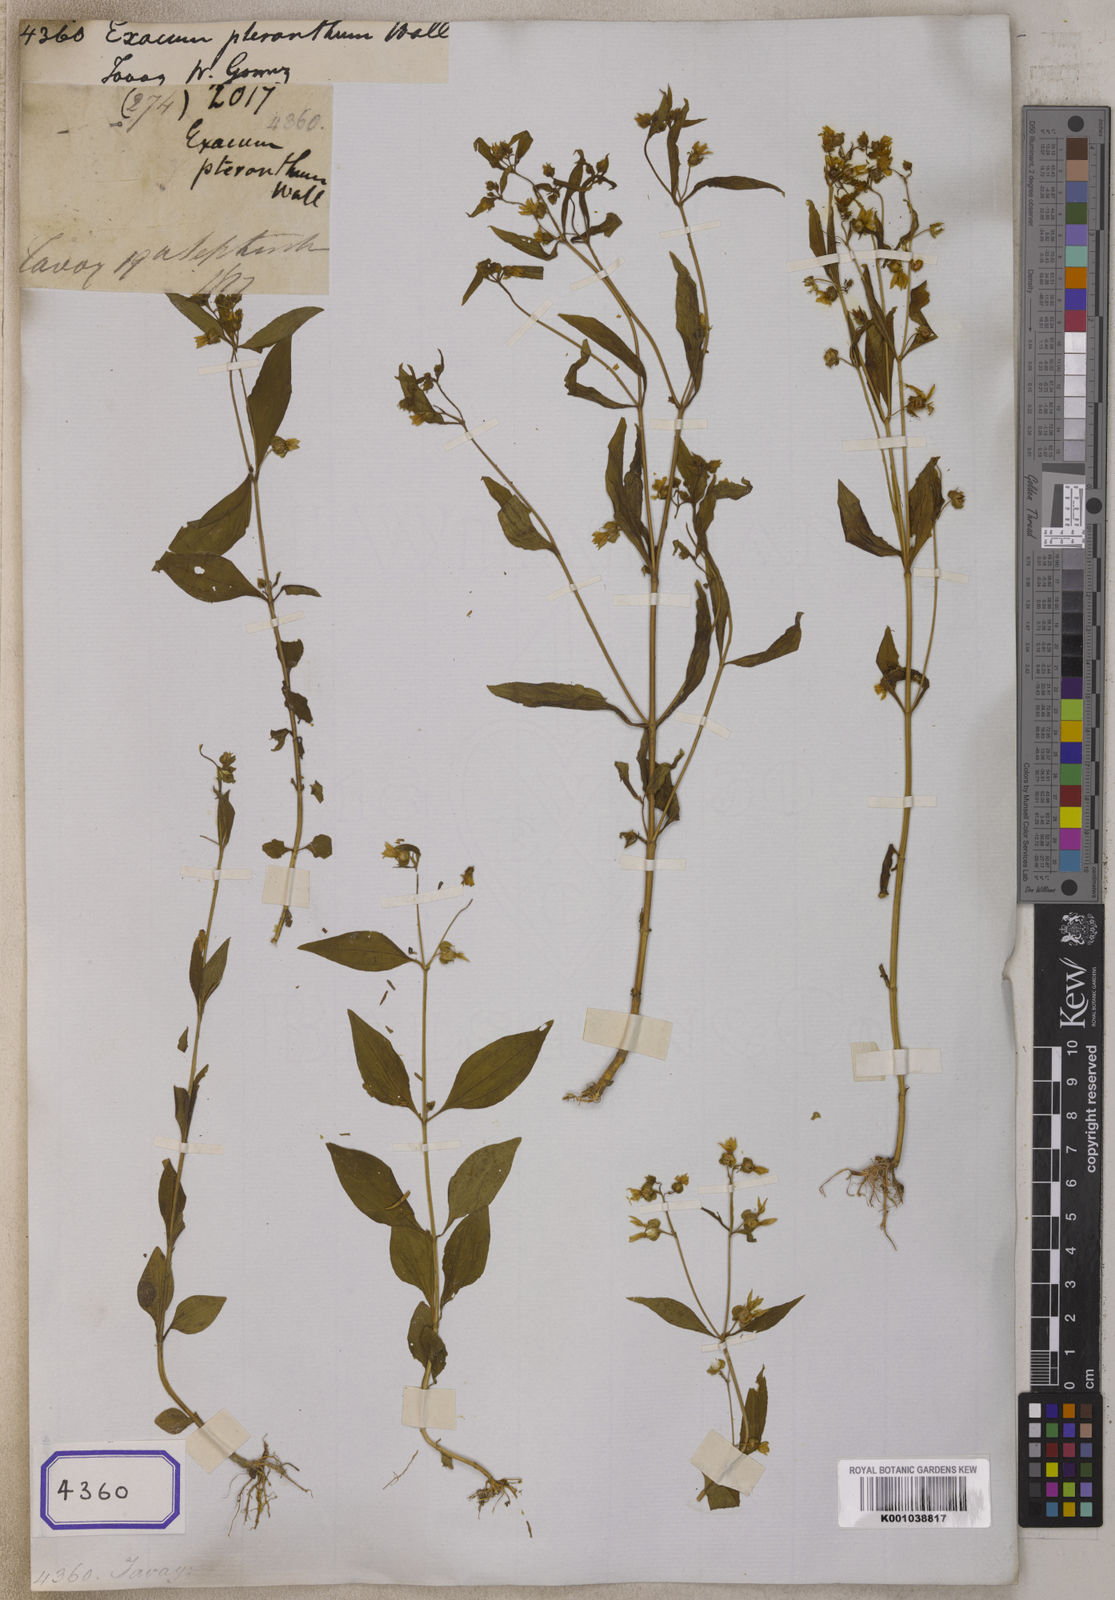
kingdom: Plantae
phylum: Tracheophyta
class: Magnoliopsida
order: Gentianales
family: Gentianaceae
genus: Exacum
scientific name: Exacum
